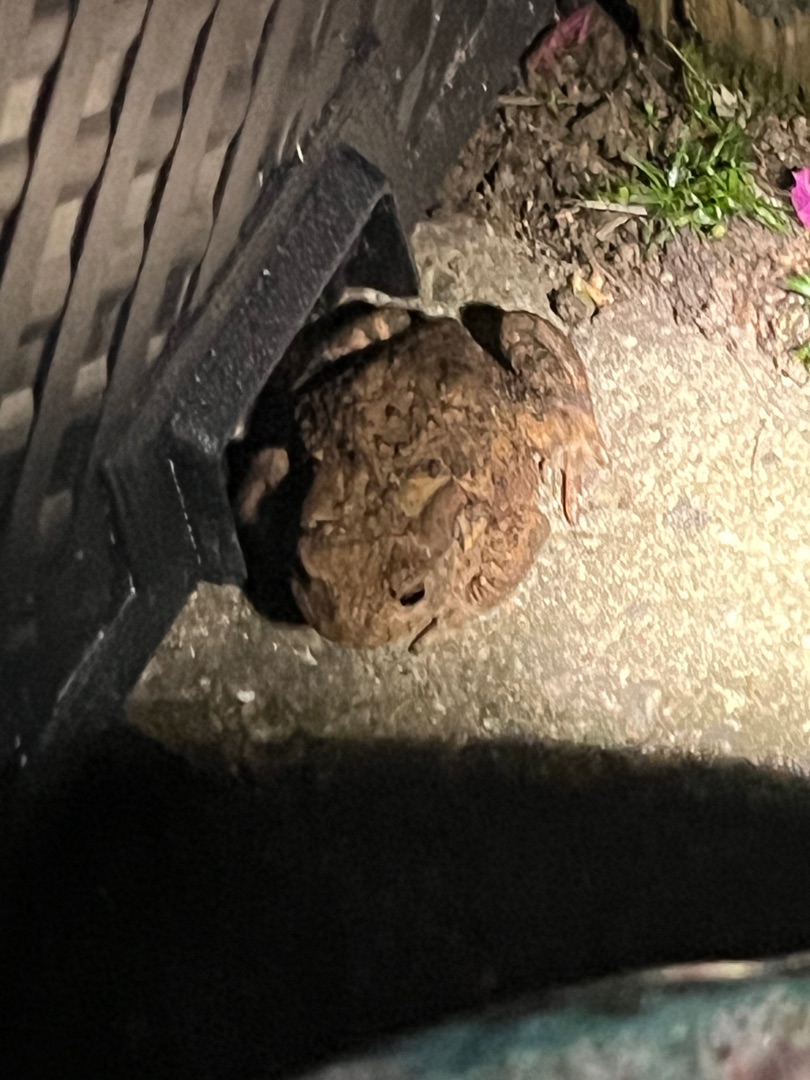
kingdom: Animalia
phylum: Chordata
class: Amphibia
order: Anura
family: Bufonidae
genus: Bufo
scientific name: Bufo bufo
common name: Skrubtudse
